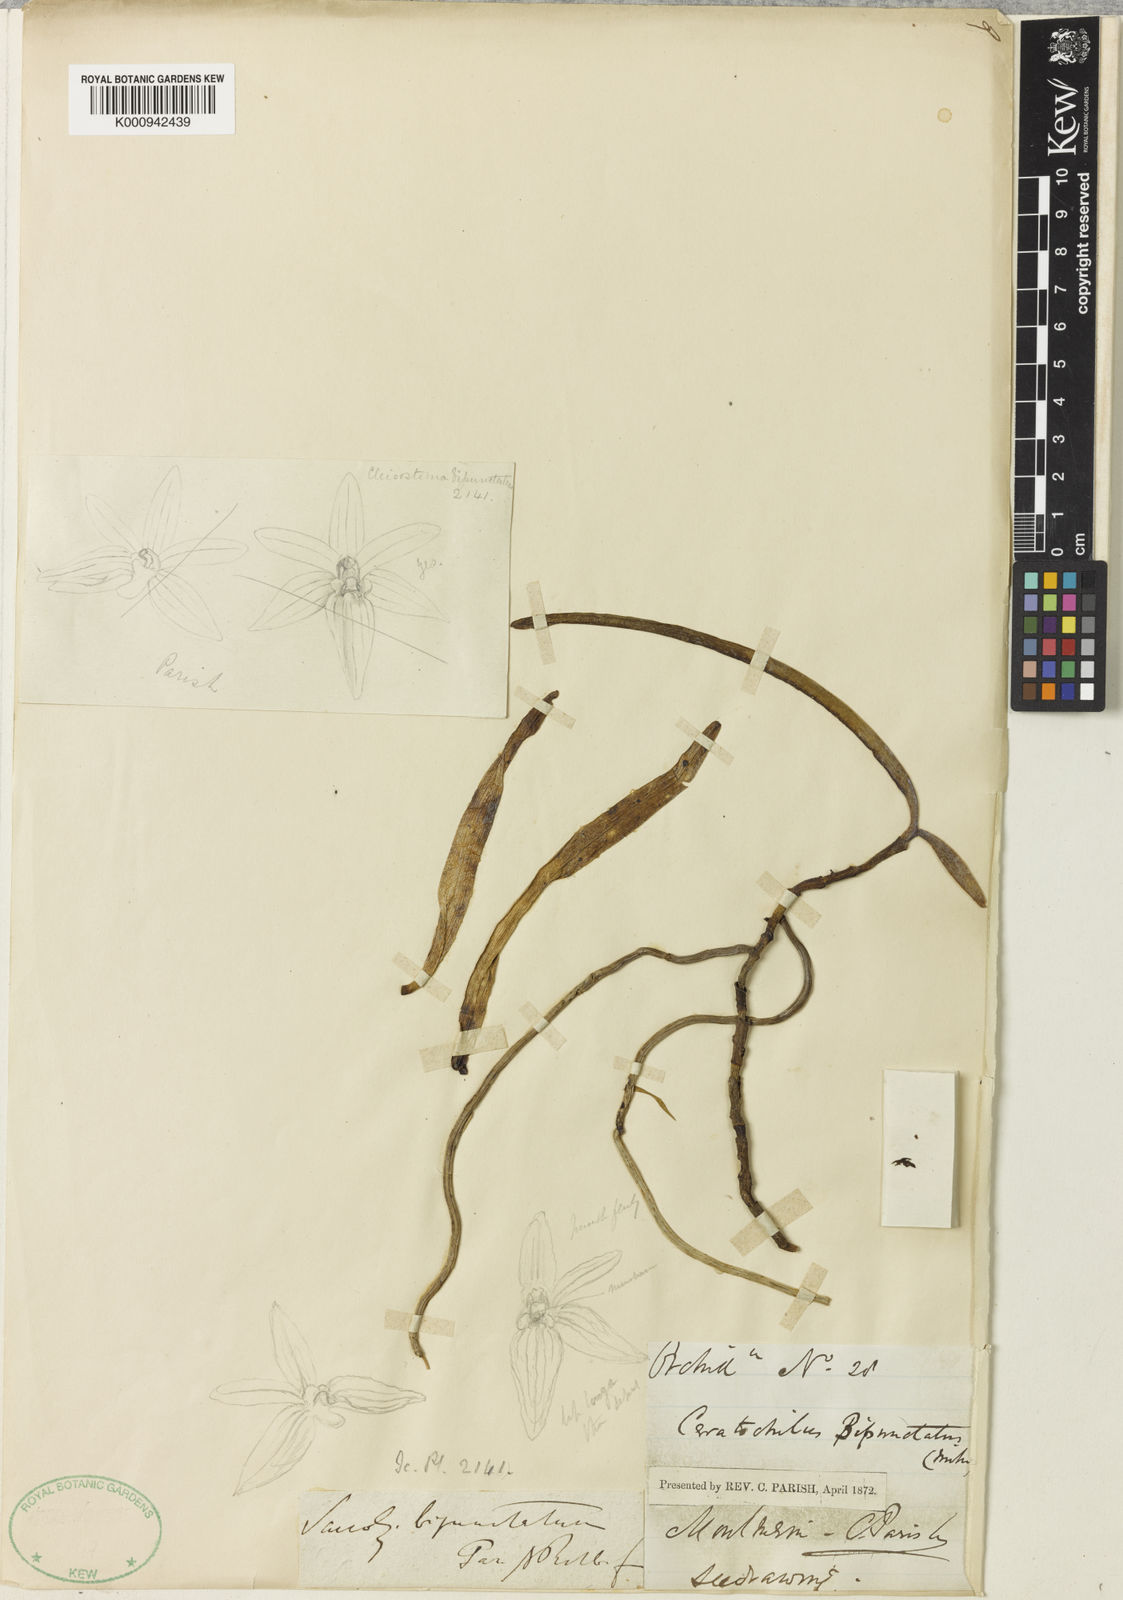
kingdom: Plantae
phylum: Tracheophyta
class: Liliopsida
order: Asparagales
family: Orchidaceae
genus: Pomatocalpa
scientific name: Pomatocalpa
